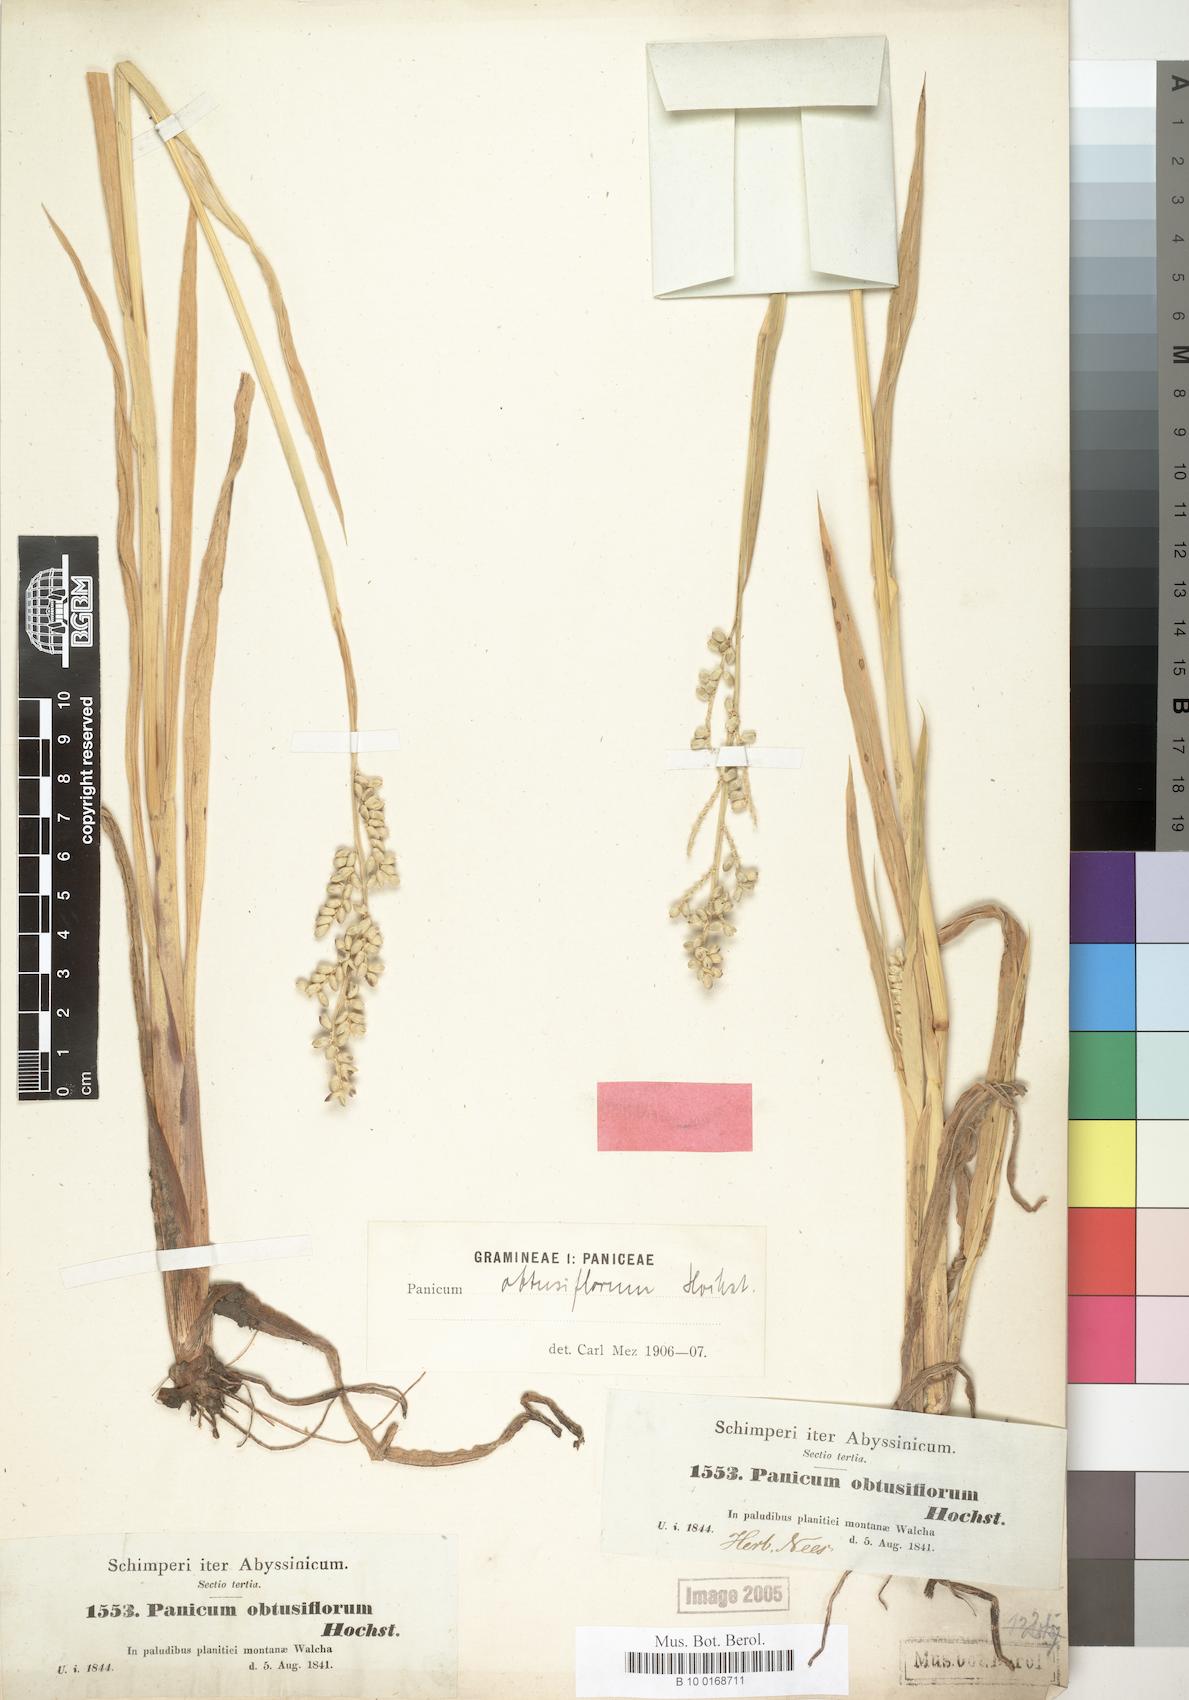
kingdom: Plantae
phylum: Tracheophyta
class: Liliopsida
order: Poales
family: Poaceae
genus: Echinochloa
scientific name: Echinochloa rotundiflora
